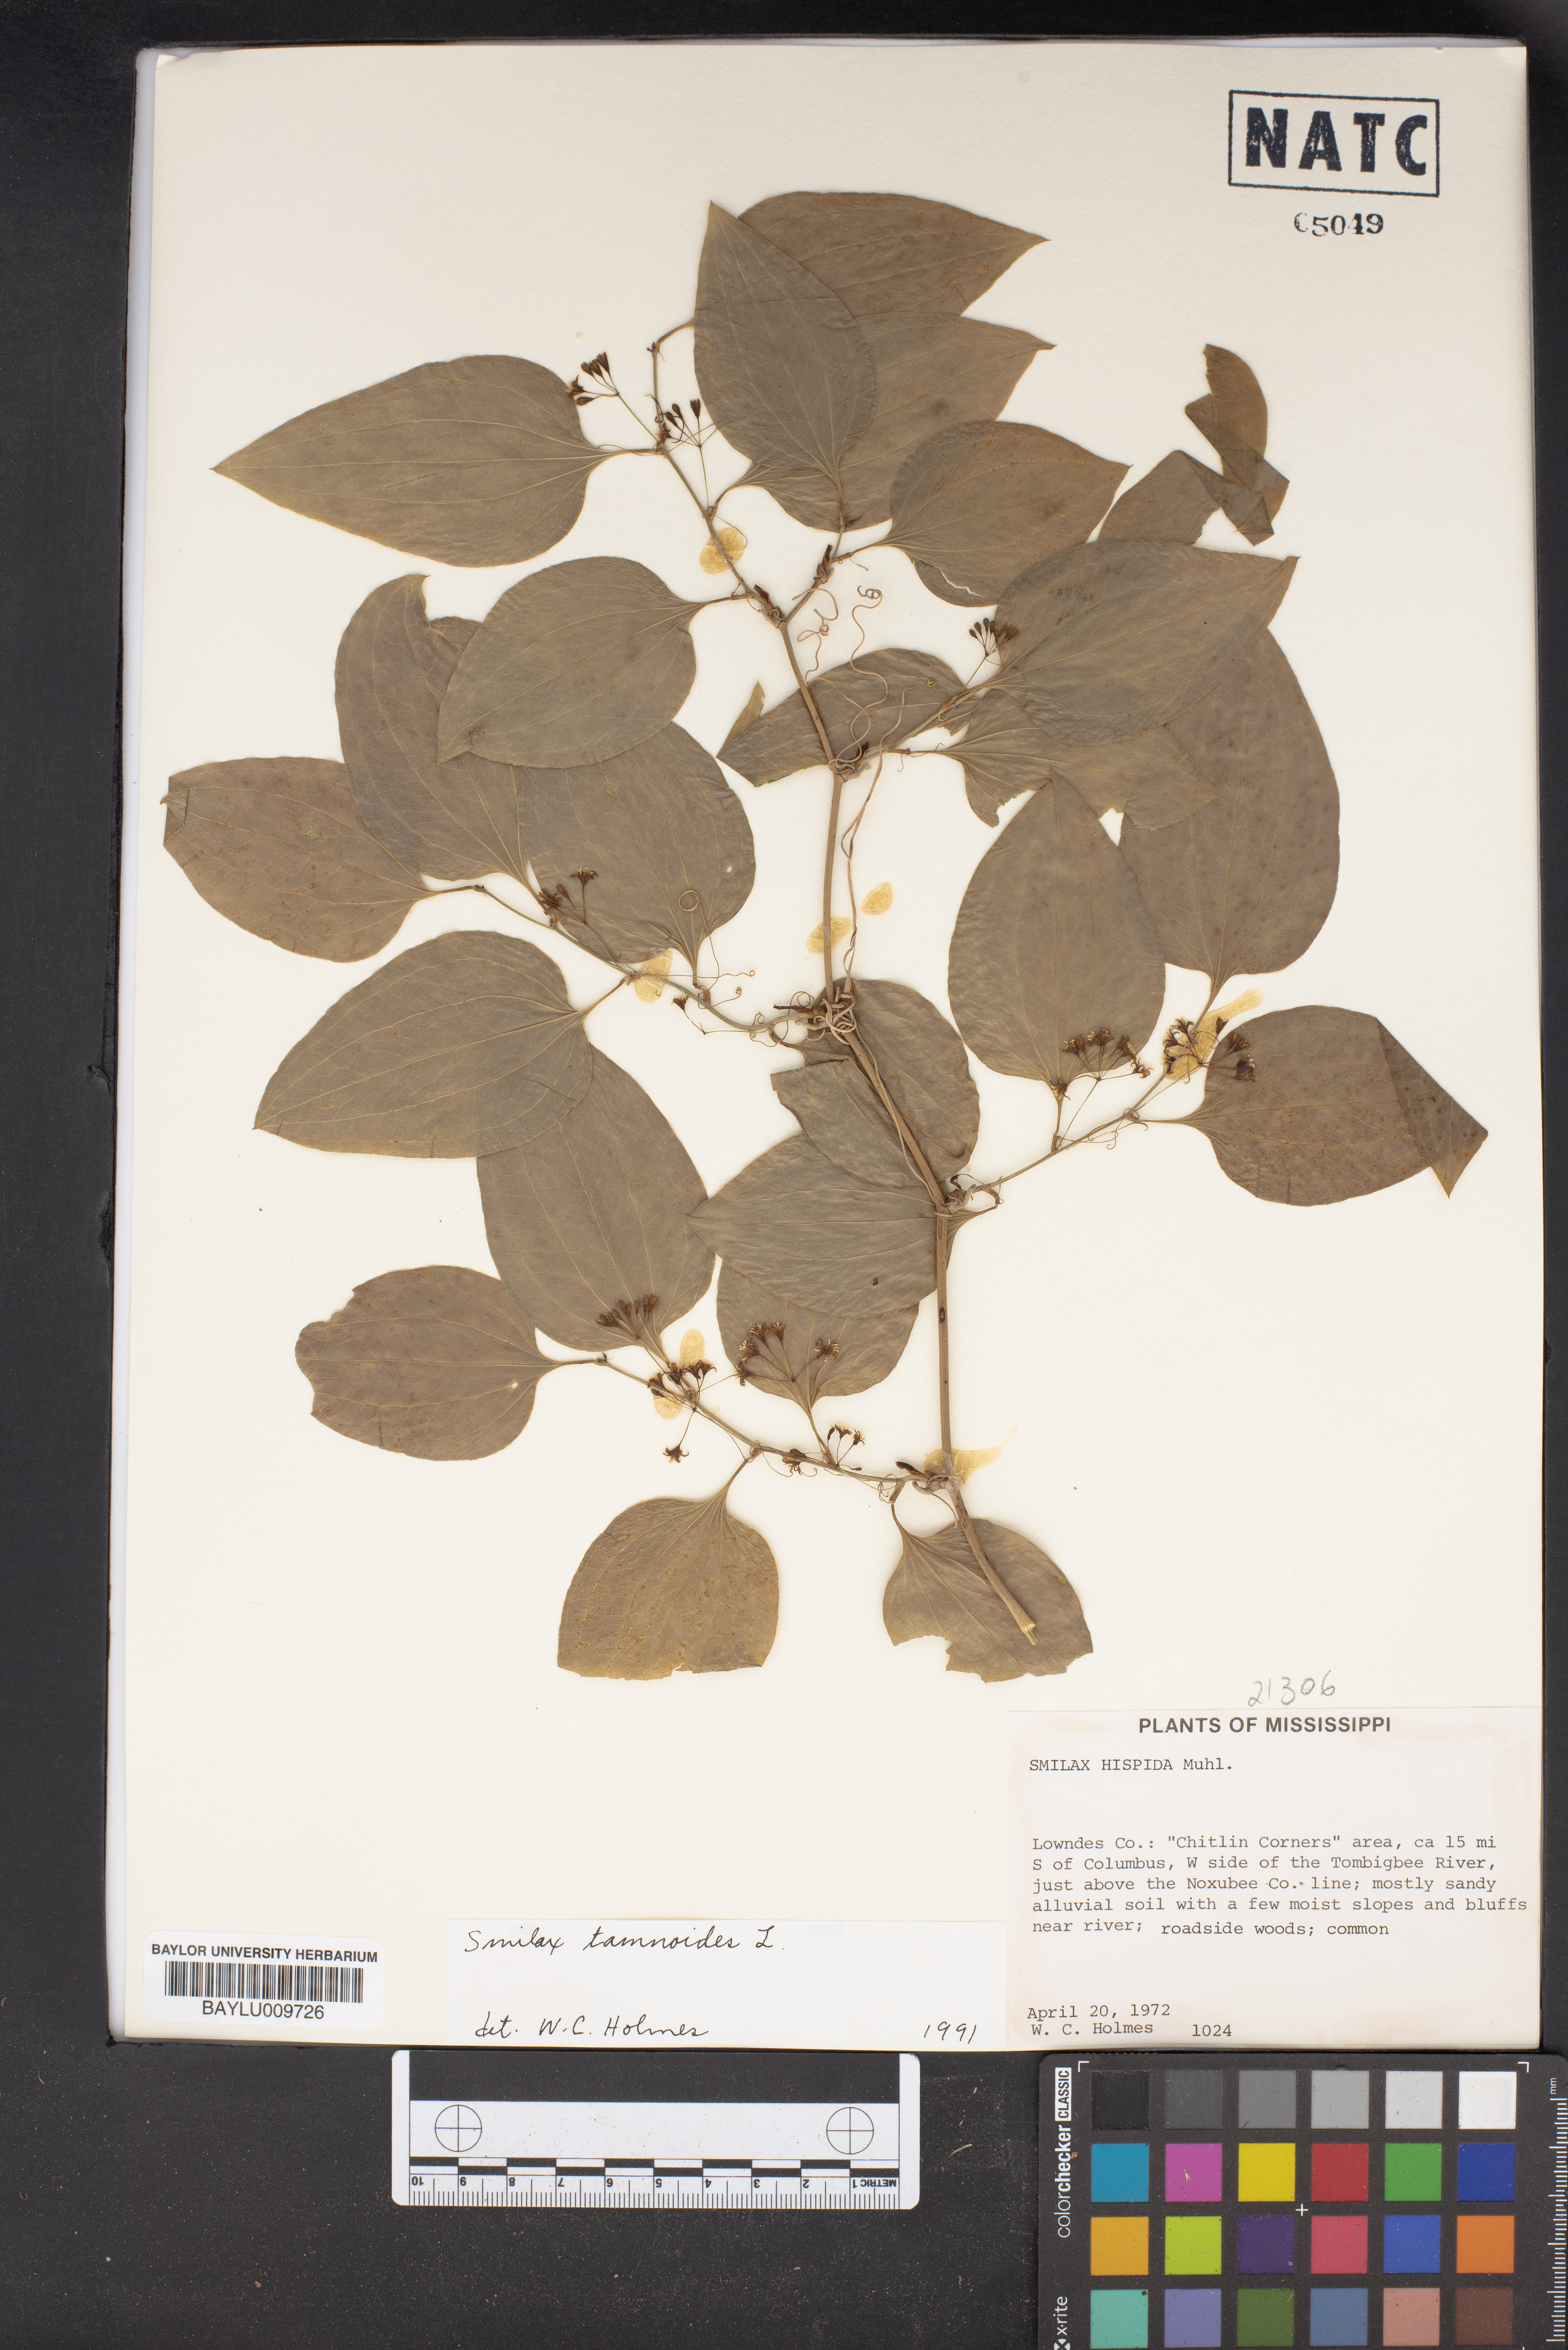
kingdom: Plantae
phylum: Tracheophyta
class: Liliopsida
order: Liliales
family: Smilacaceae
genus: Smilax
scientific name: Smilax tamnoides
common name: Hellfetter
